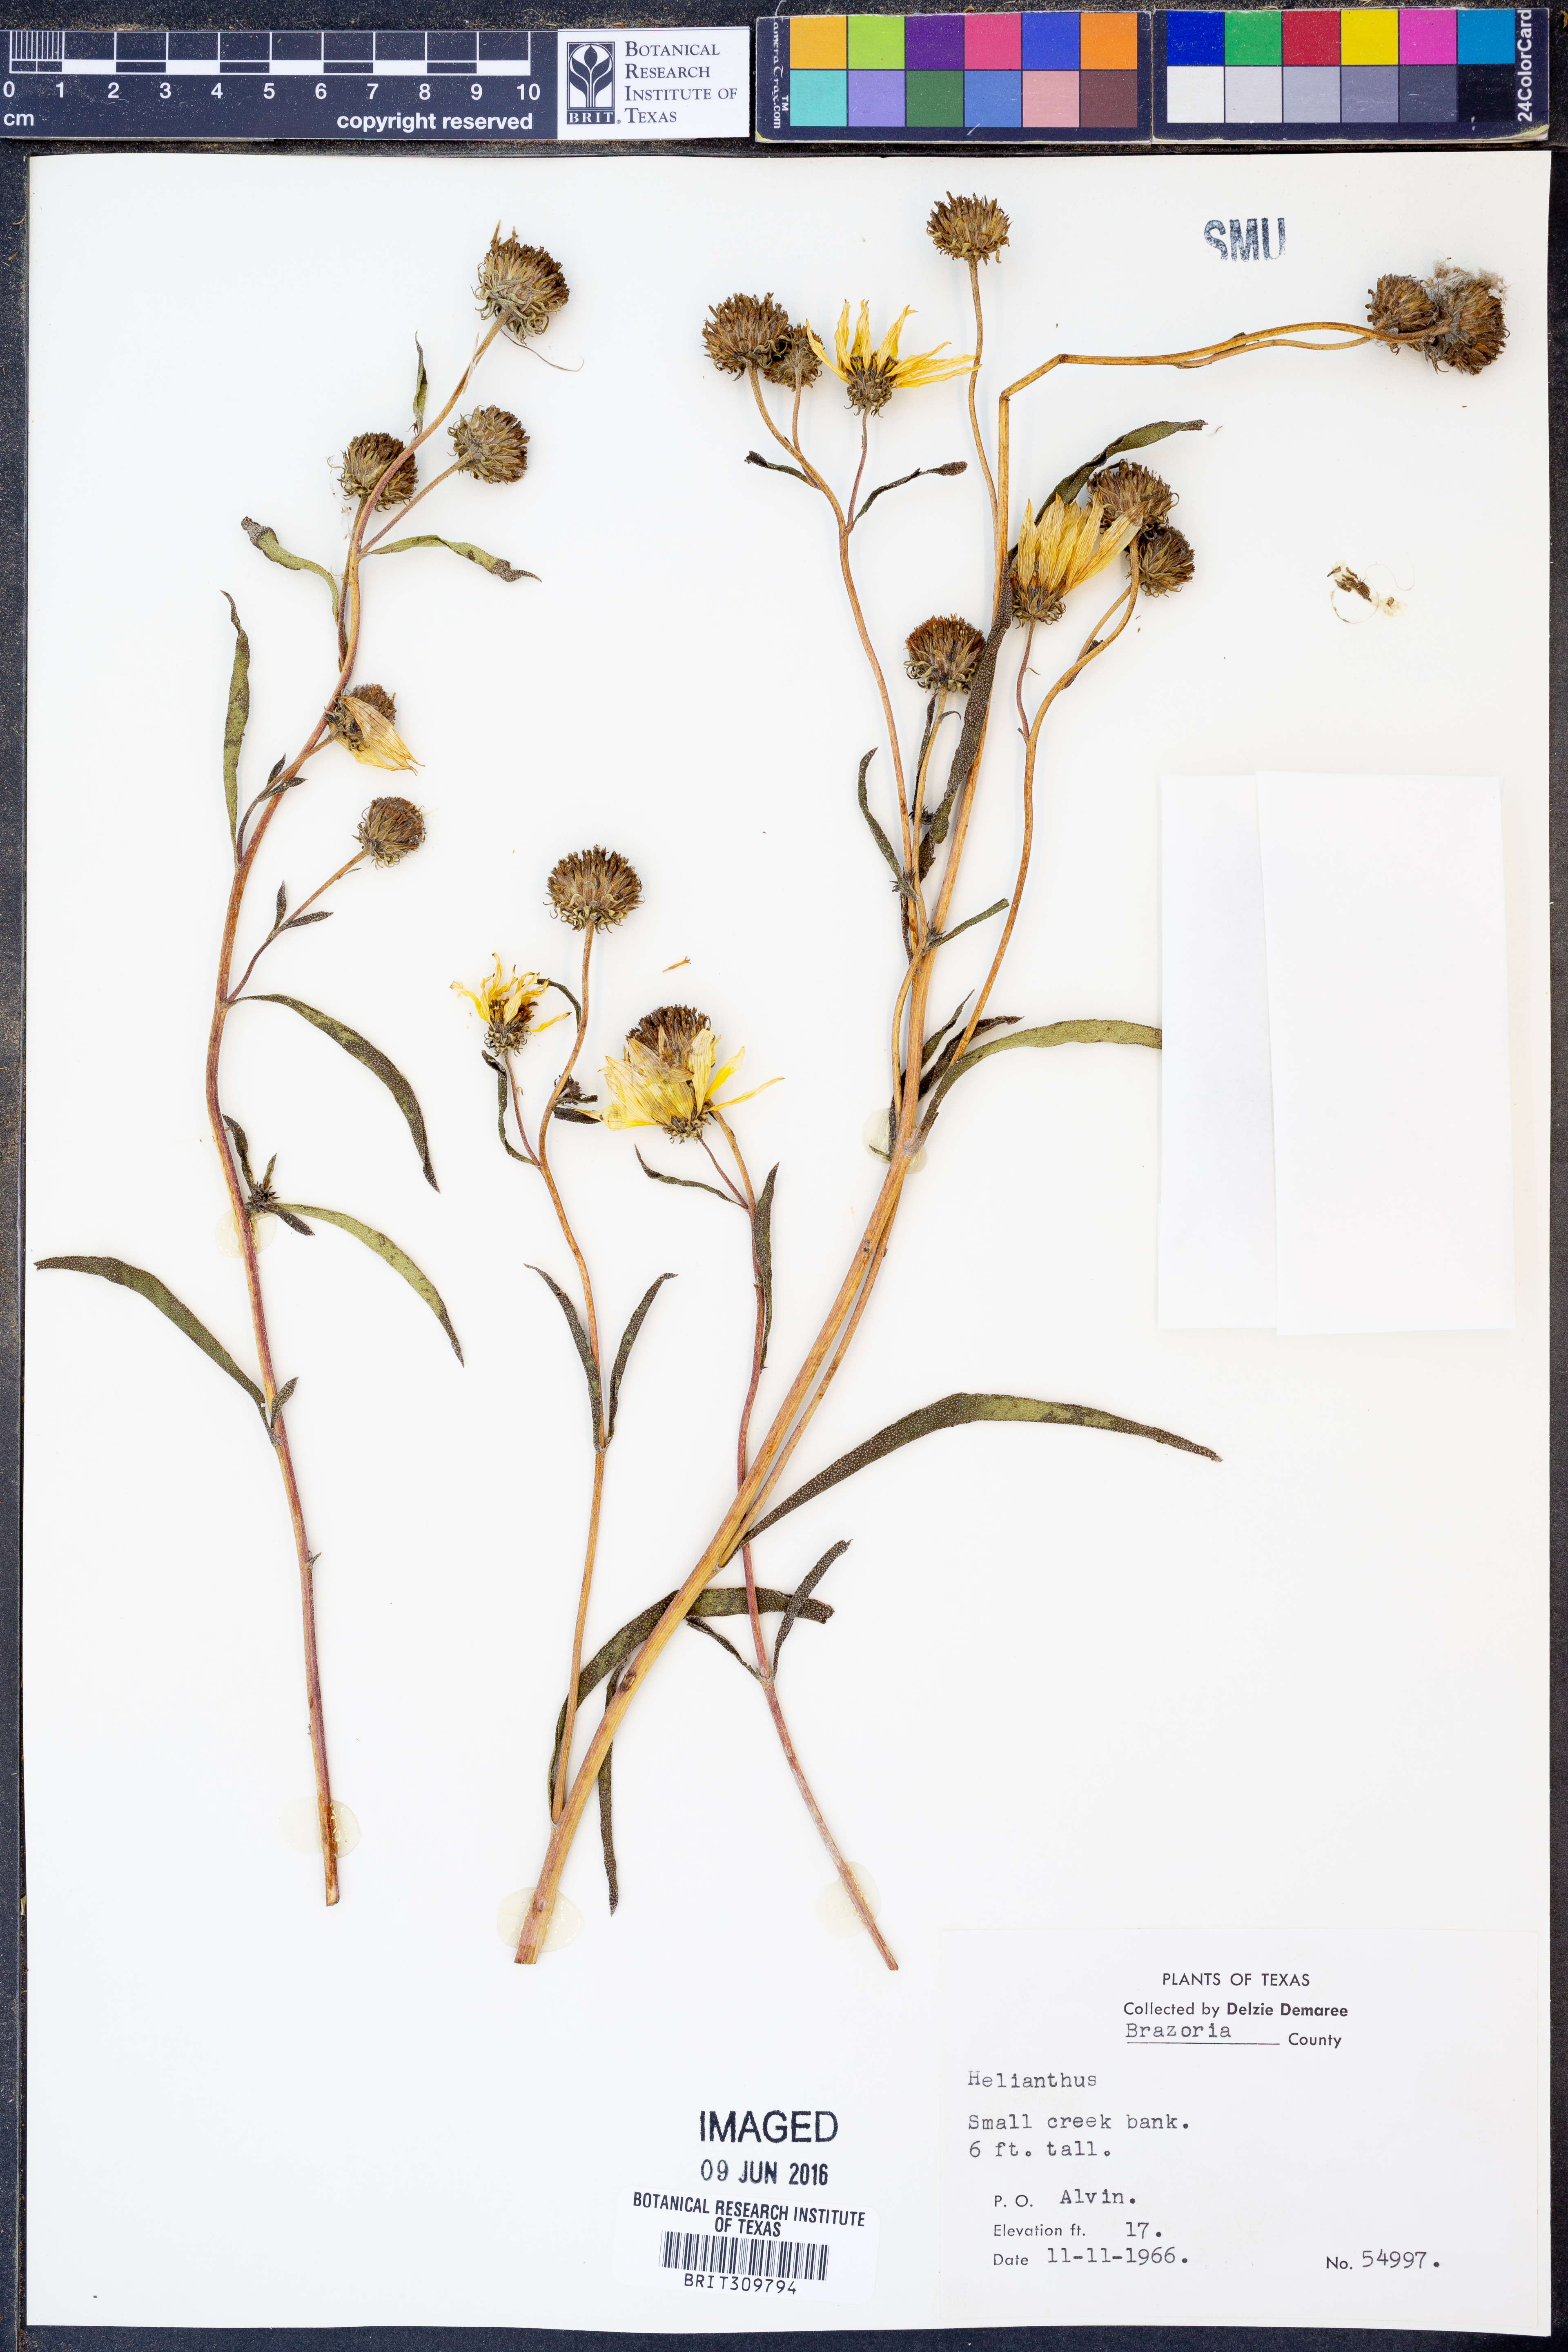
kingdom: Plantae
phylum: Tracheophyta
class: Magnoliopsida
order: Asterales
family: Asteraceae
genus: Helianthus
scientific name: Helianthus
